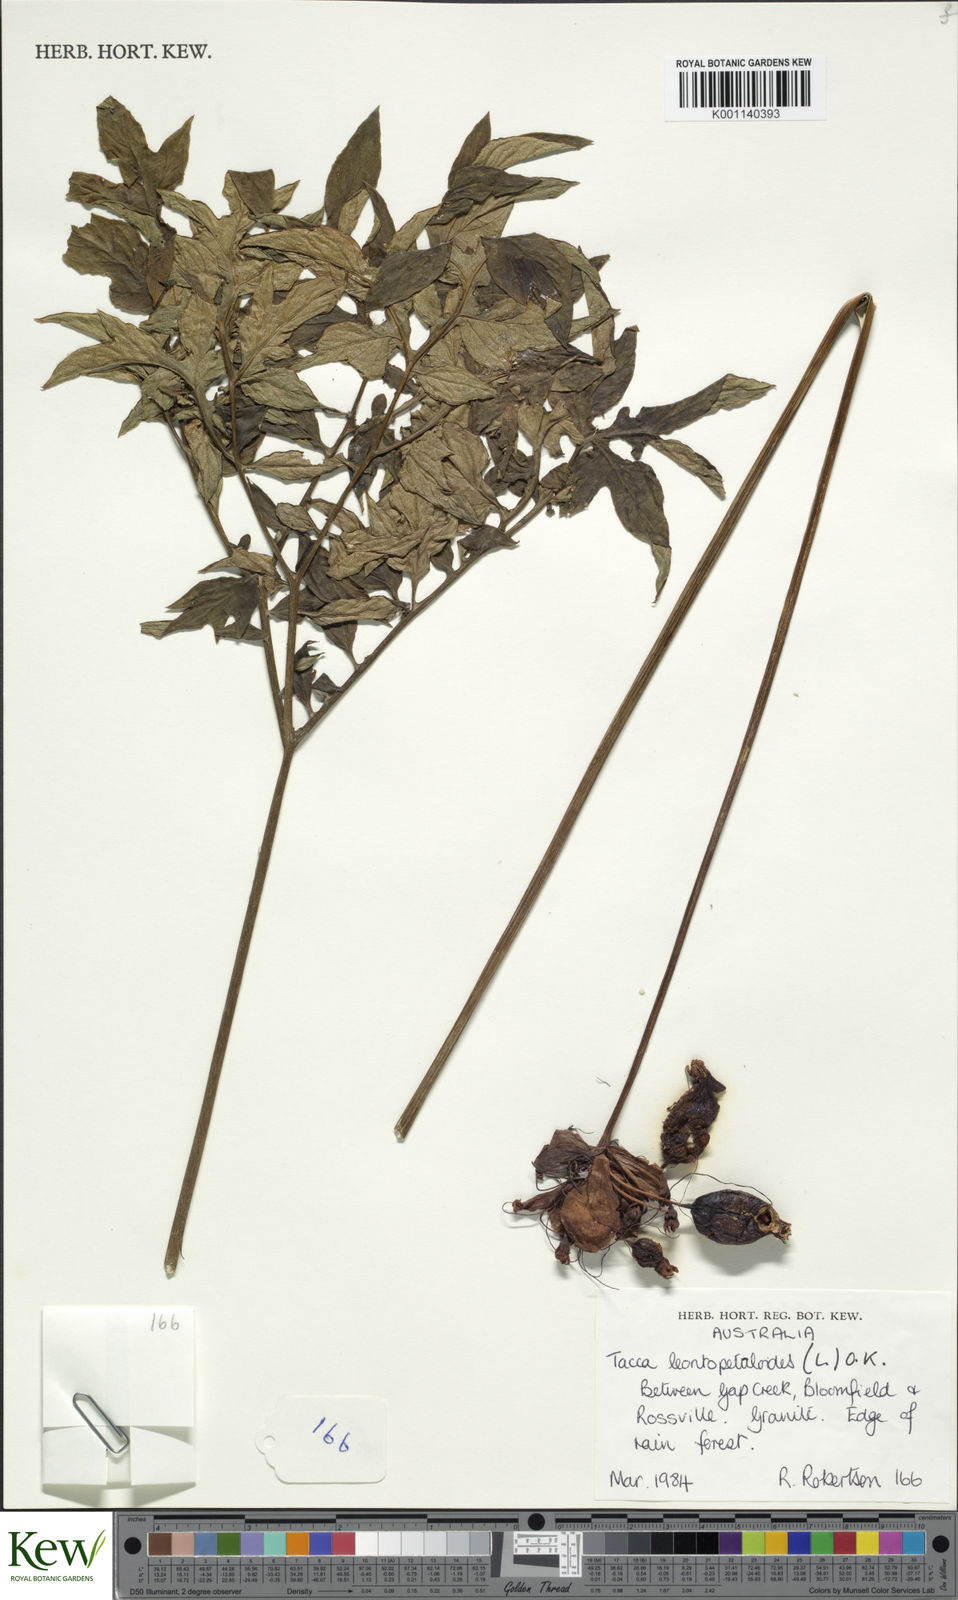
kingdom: Plantae
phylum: Tracheophyta
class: Liliopsida
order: Dioscoreales
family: Dioscoreaceae
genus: Tacca
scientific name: Tacca leontopetaloides
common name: Arrowroot
